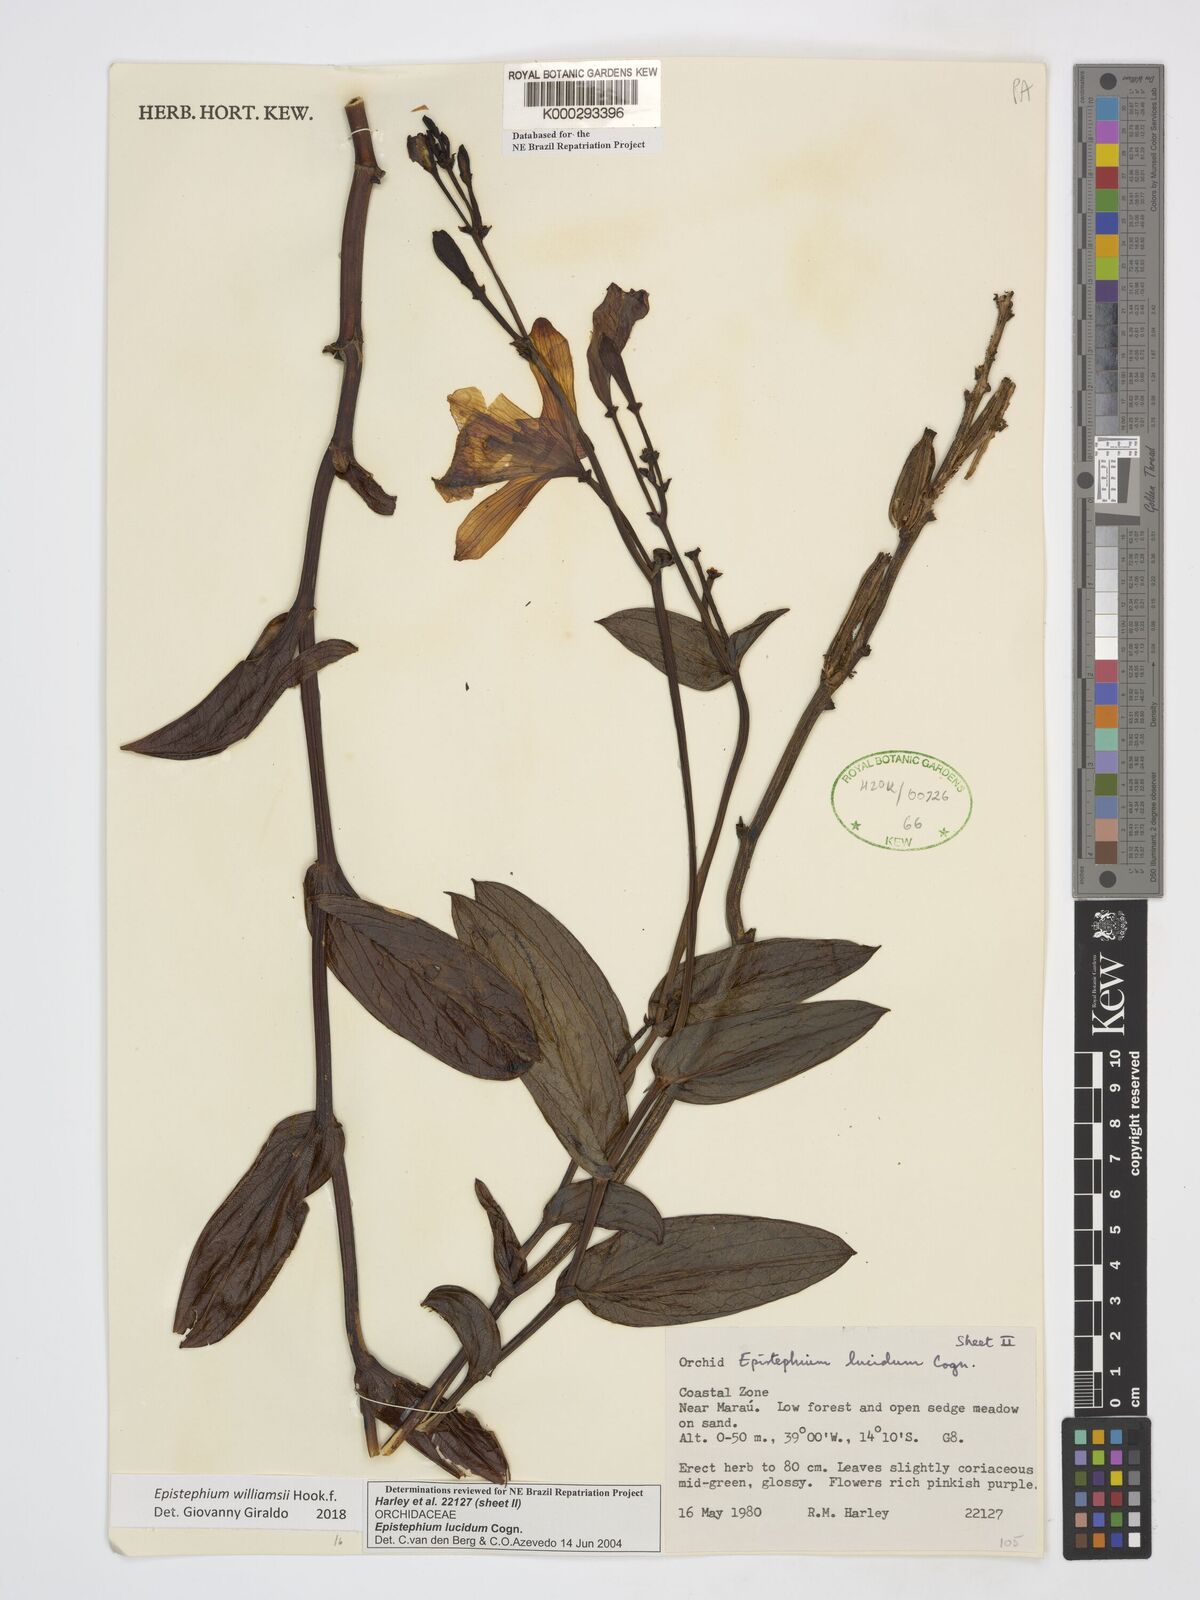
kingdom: Plantae
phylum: Tracheophyta
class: Liliopsida
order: Asparagales
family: Orchidaceae
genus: Epistephium
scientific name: Epistephium williamsii
